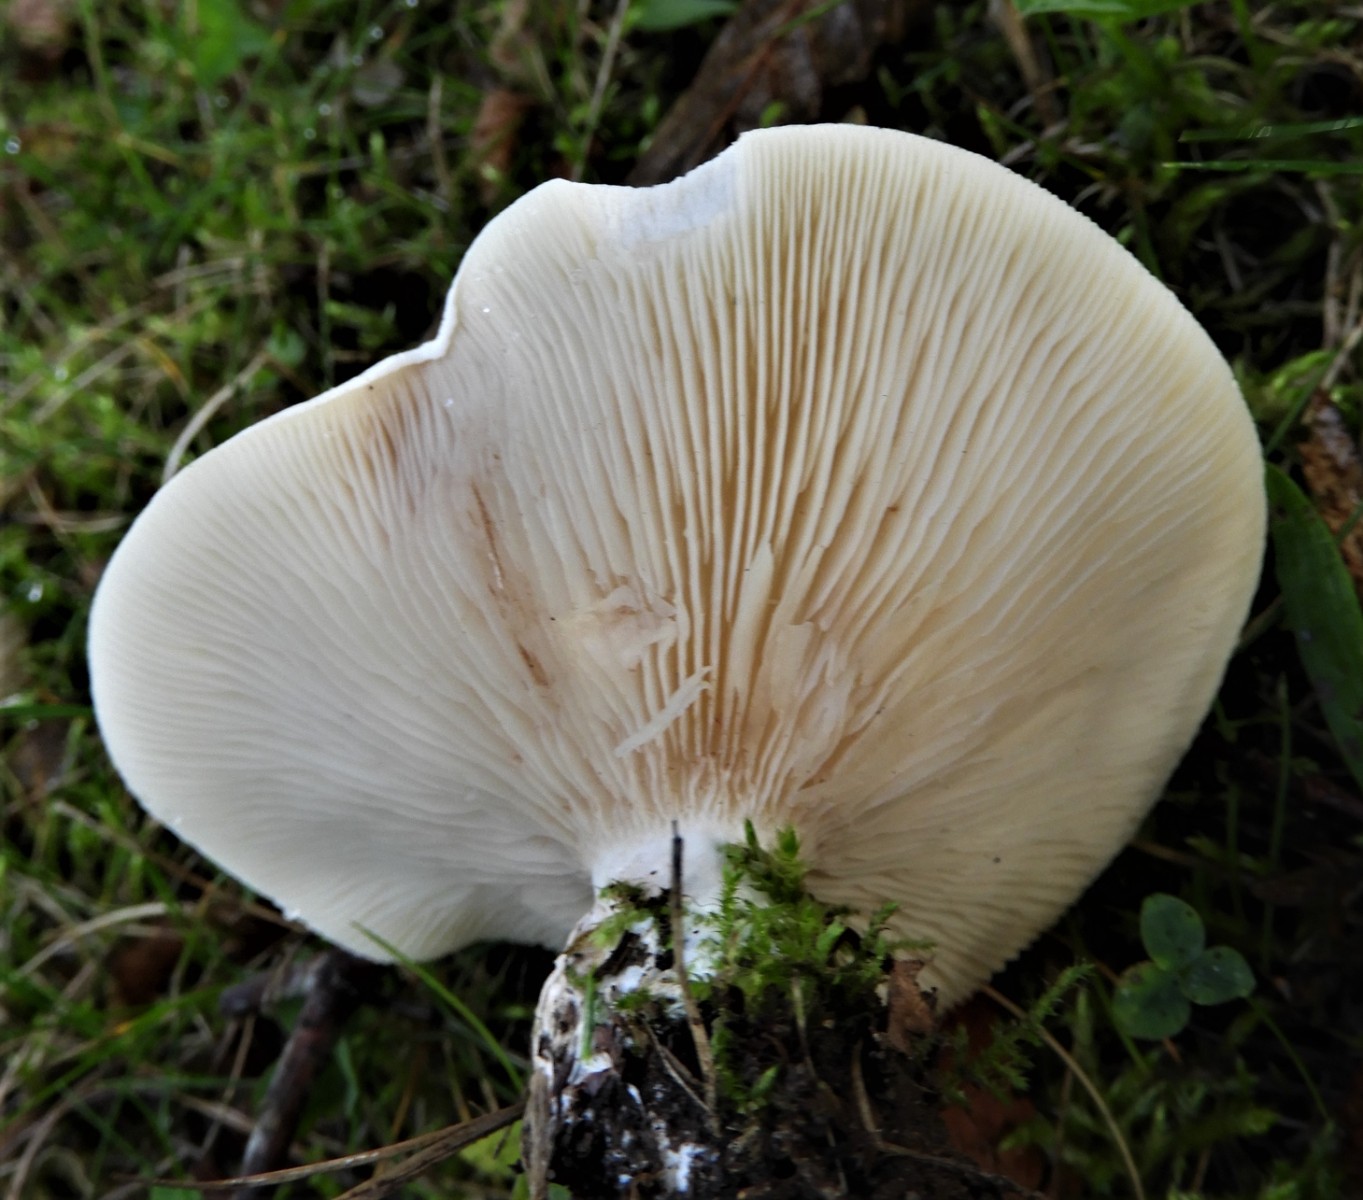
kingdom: Fungi
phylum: Basidiomycota
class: Agaricomycetes
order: Agaricales
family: Entolomataceae
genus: Clitopilus
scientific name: Clitopilus prunulus
